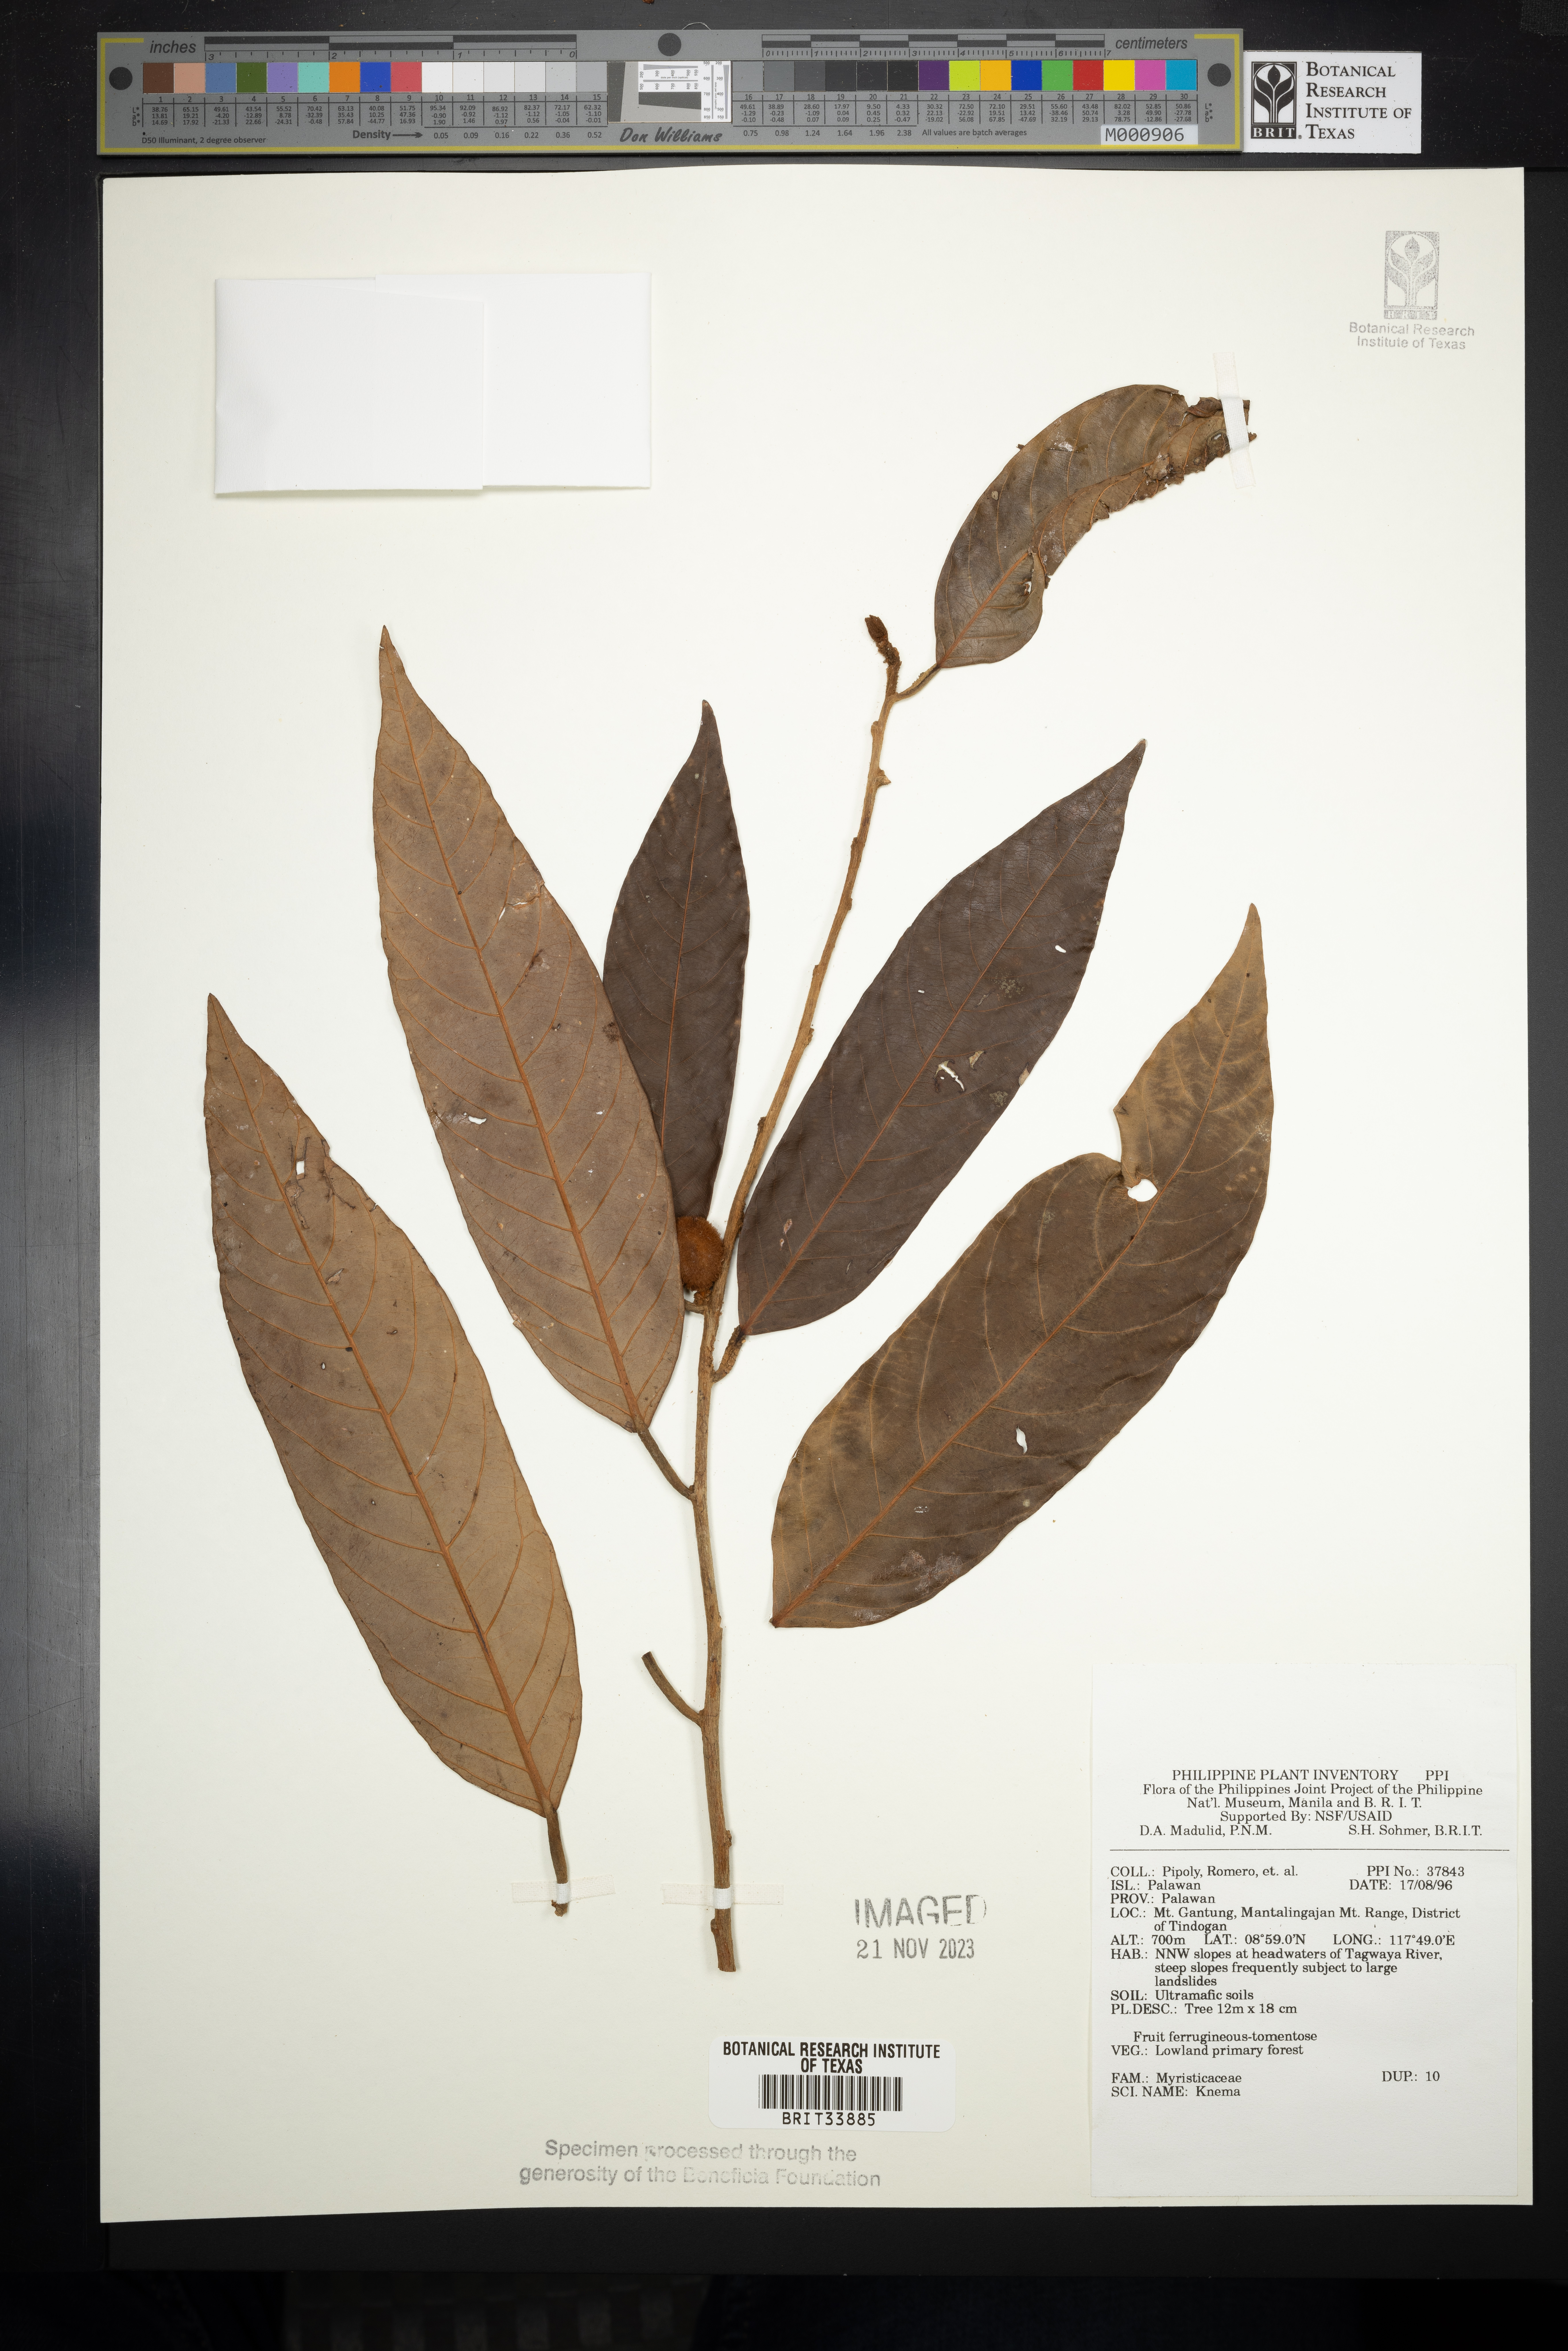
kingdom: Plantae
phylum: Tracheophyta
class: Magnoliopsida
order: Magnoliales
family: Myristicaceae
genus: Knema
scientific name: Knema
